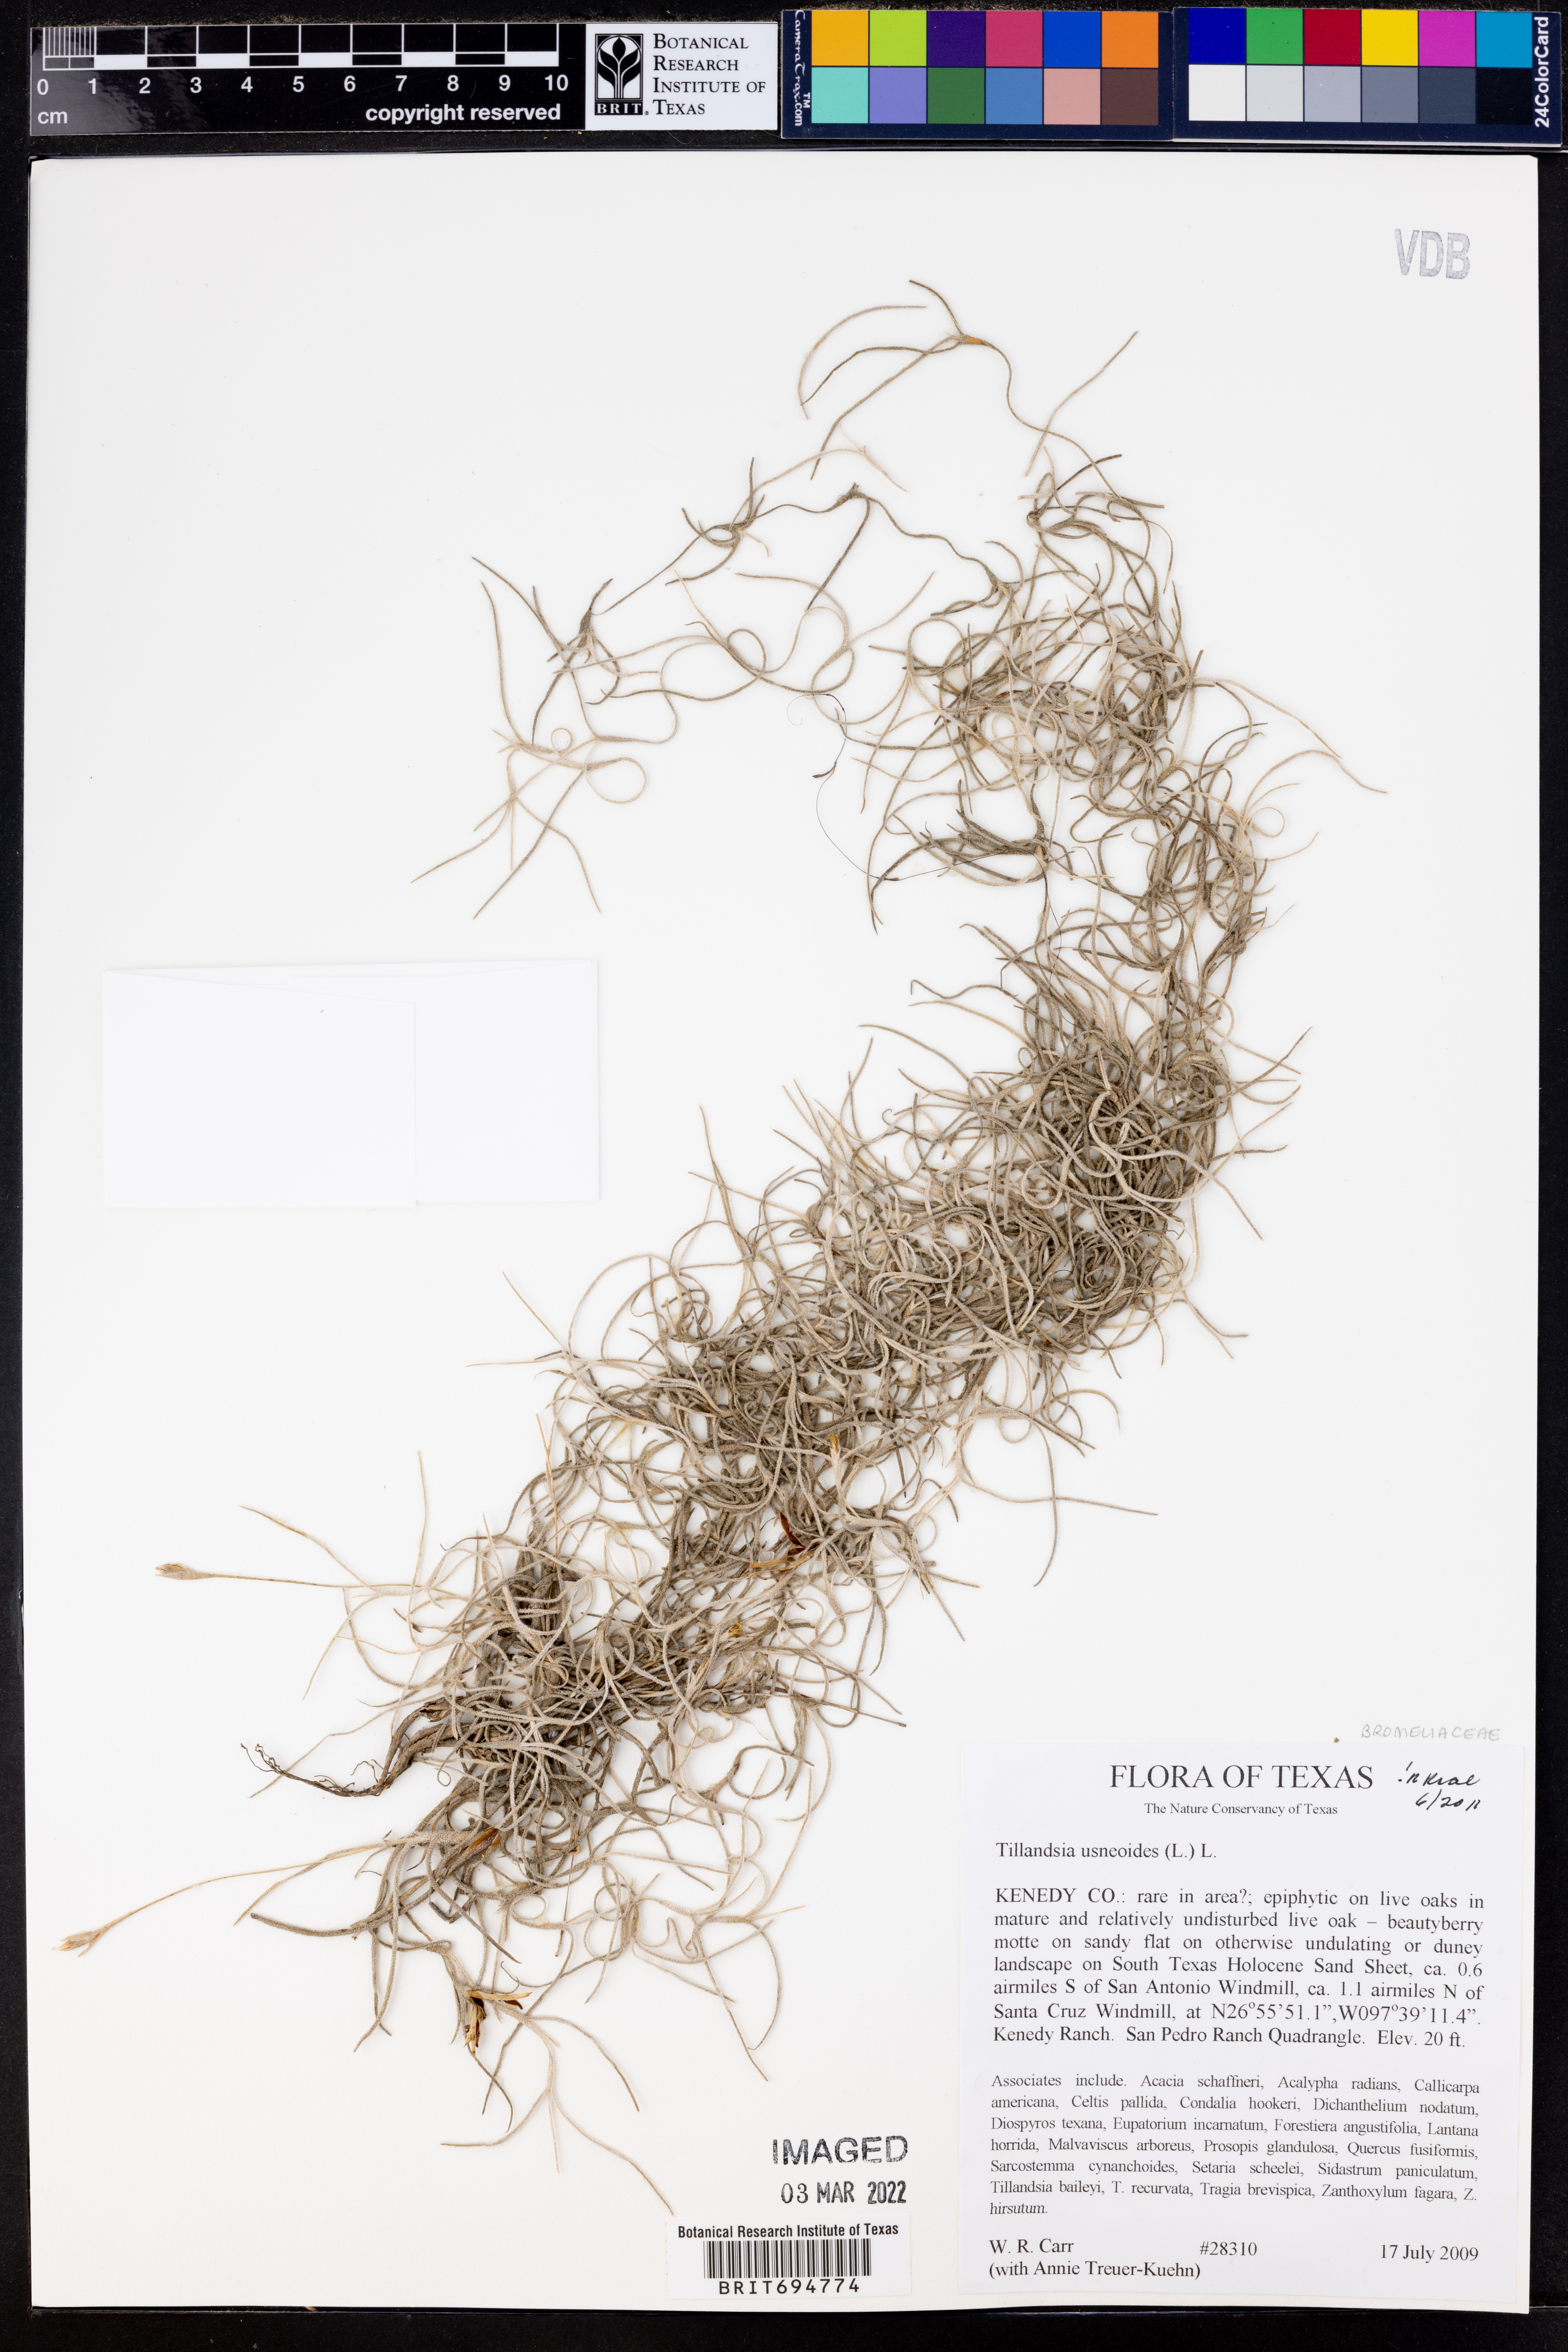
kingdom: Plantae
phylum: Tracheophyta
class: Liliopsida
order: Poales
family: Bromeliaceae
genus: Tillandsia
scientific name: Tillandsia usneoides
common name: Spanish moss
